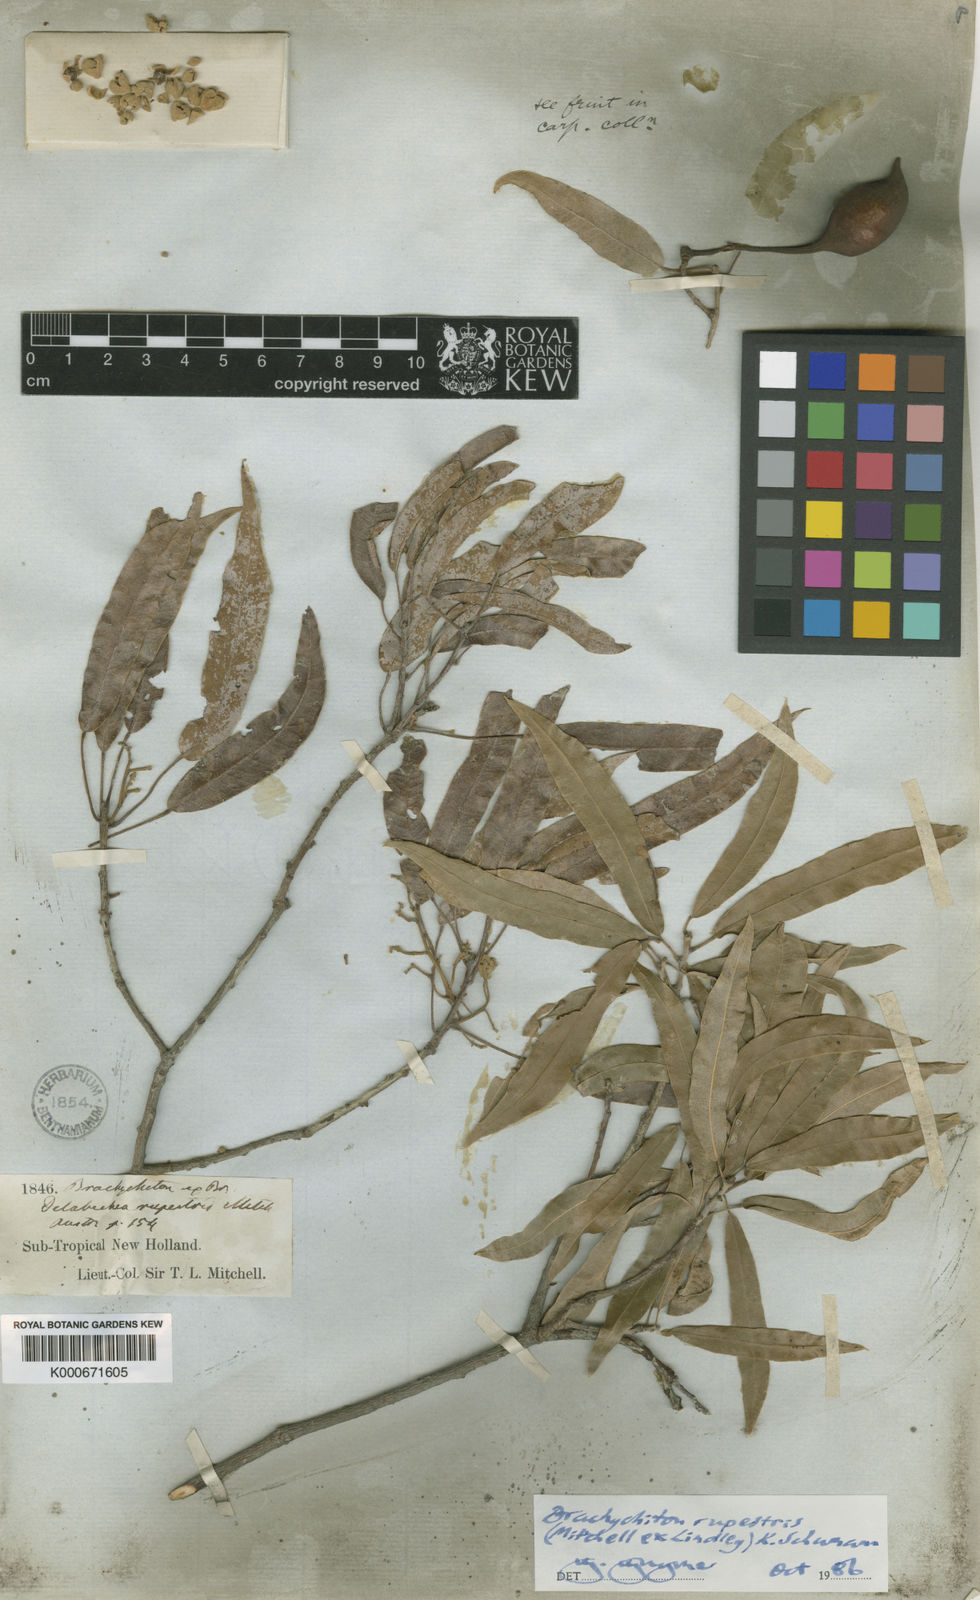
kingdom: Plantae
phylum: Tracheophyta
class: Magnoliopsida
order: Malvales
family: Malvaceae
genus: Brachychiton
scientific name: Brachychiton rupestris
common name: Queensland bottletree
